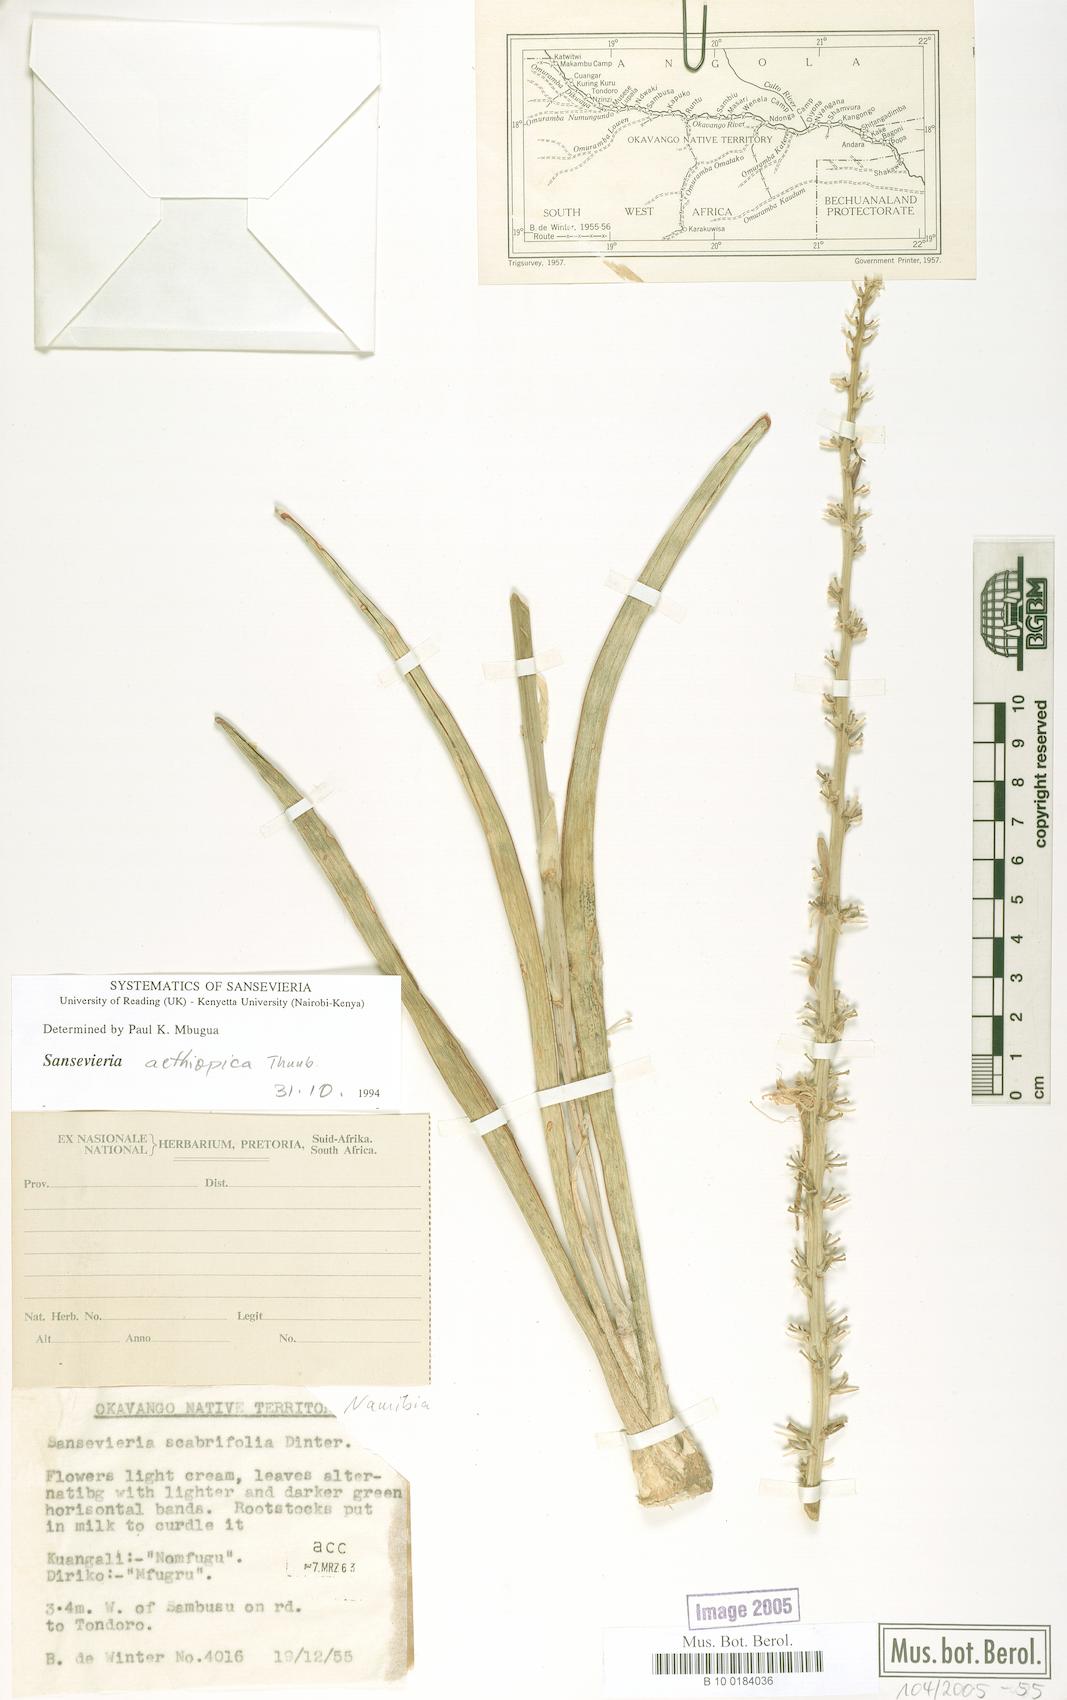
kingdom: Plantae
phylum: Tracheophyta
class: Liliopsida
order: Asparagales
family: Asparagaceae
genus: Dracaena
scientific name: Dracaena aethiopica
